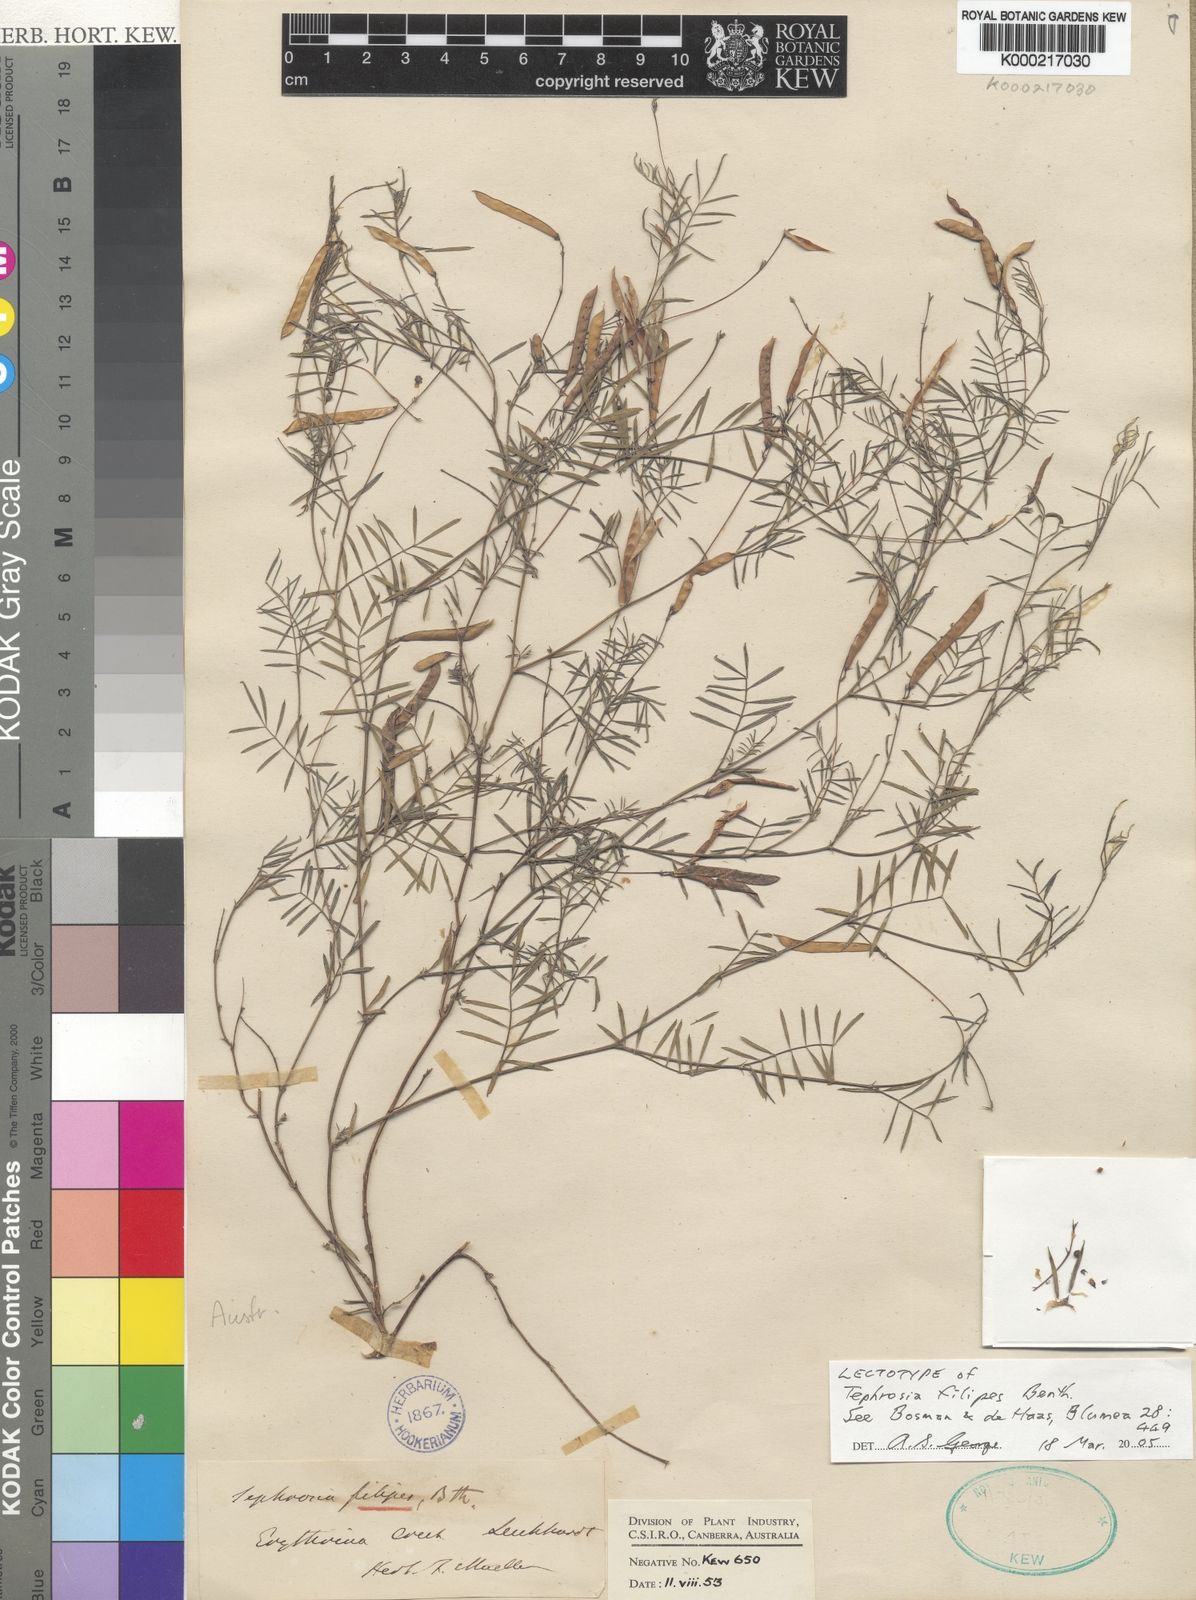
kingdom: Plantae
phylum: Tracheophyta
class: Magnoliopsida
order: Fabales
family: Fabaceae
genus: Tephrosia
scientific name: Tephrosia filipes
